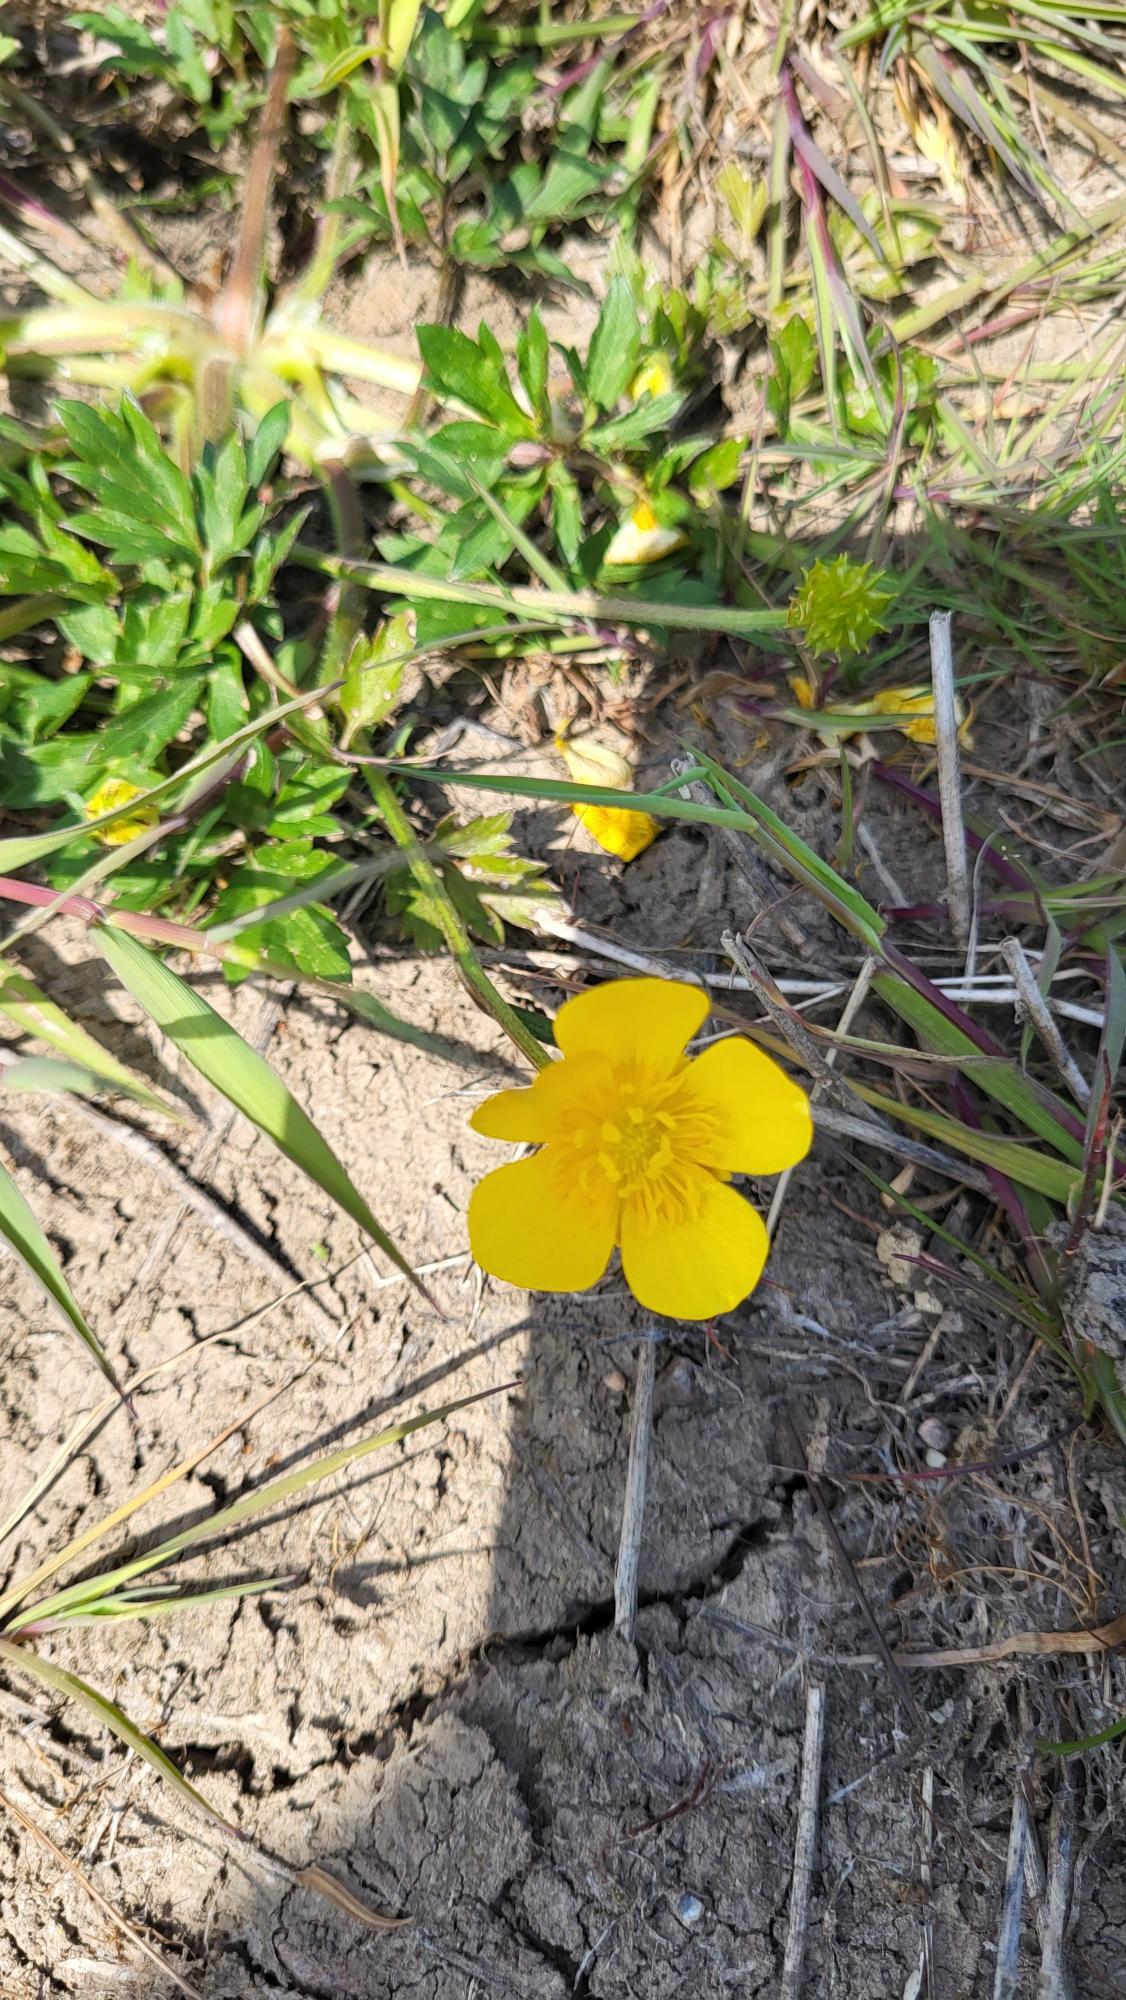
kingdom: Plantae
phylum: Tracheophyta
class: Magnoliopsida
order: Ranunculales
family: Ranunculaceae
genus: Ranunculus
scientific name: Ranunculus acris
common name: Bidende ranunkel
